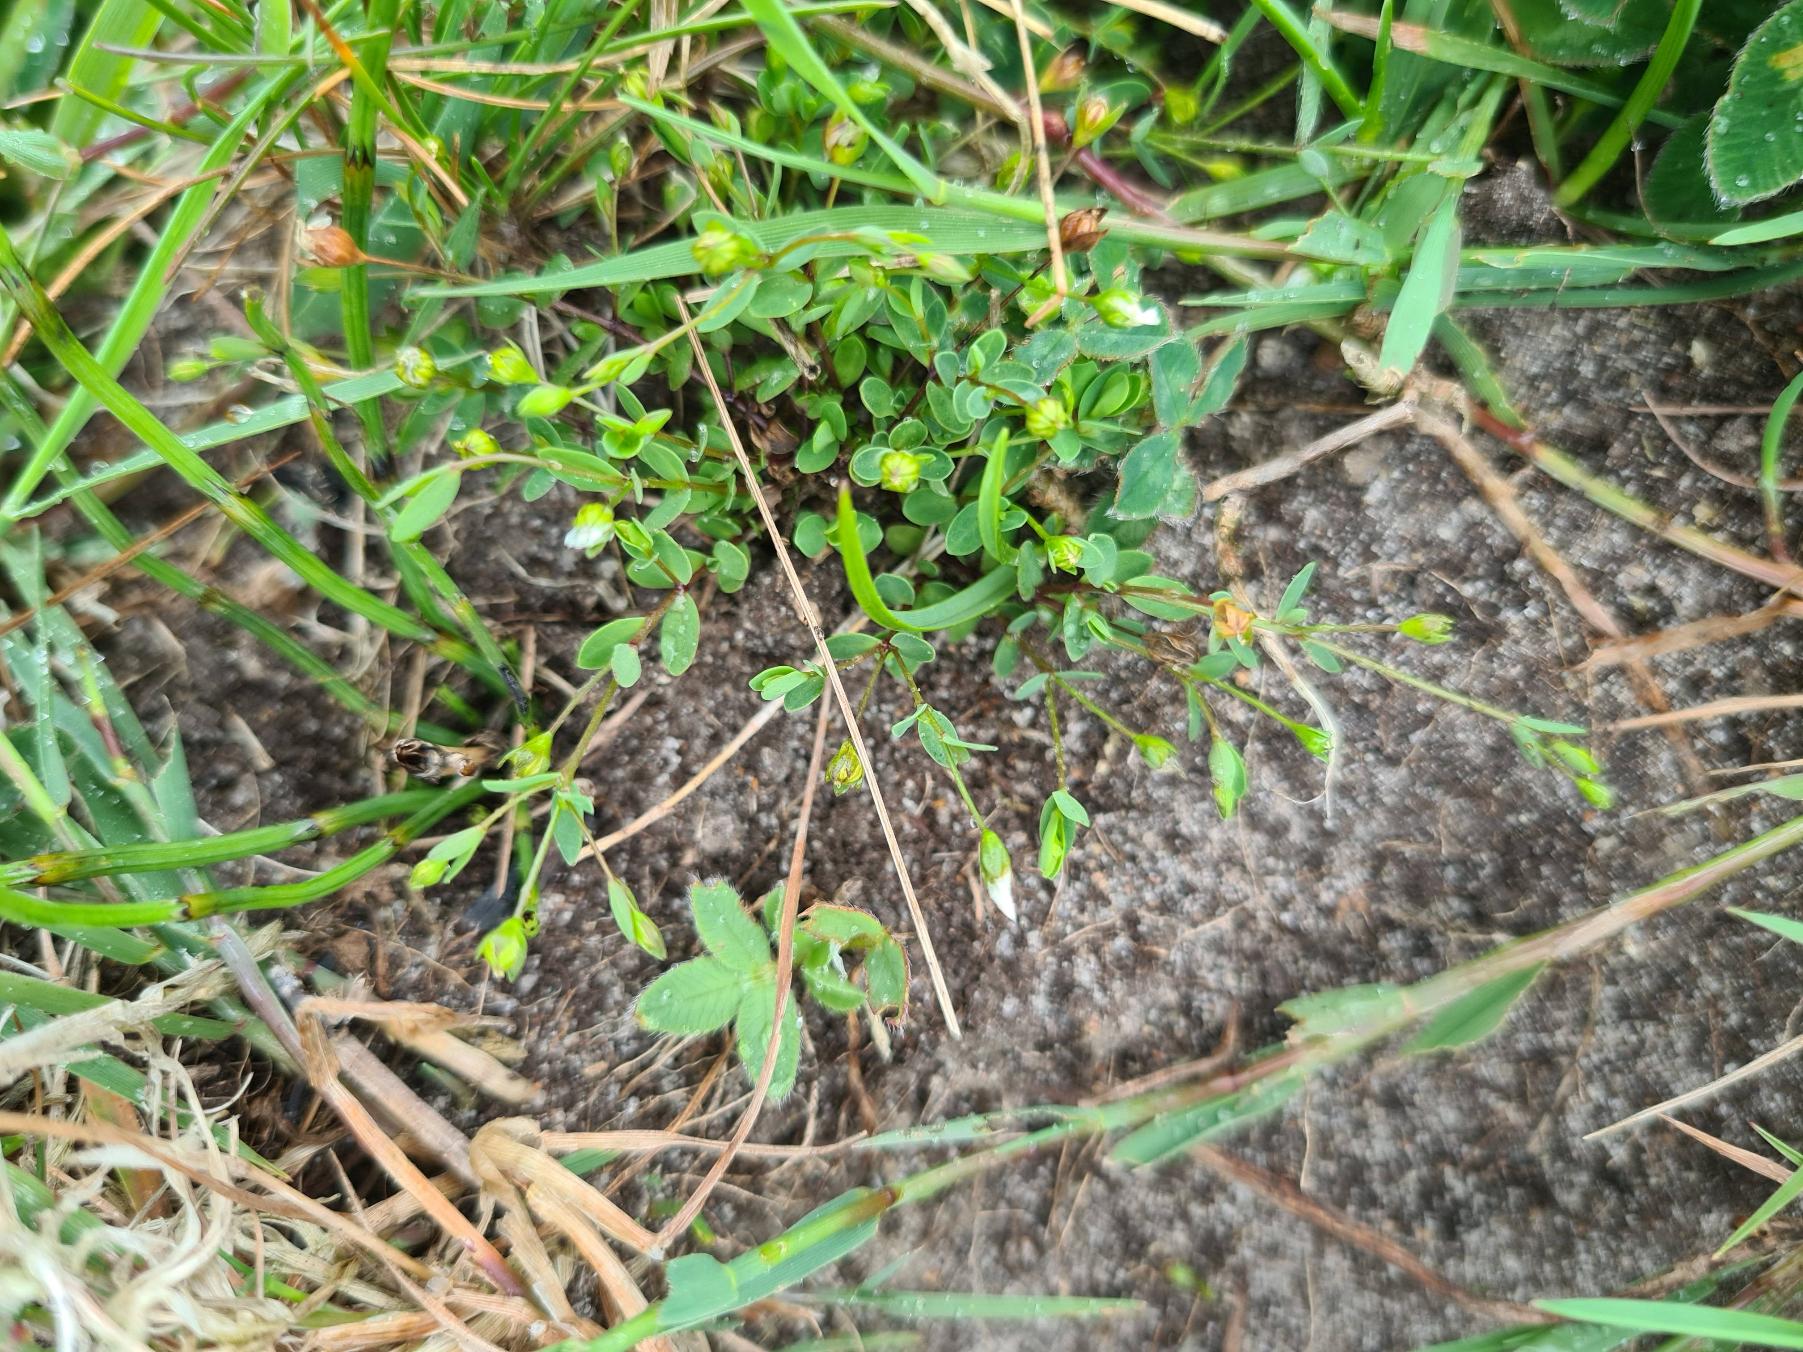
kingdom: Plantae
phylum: Tracheophyta
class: Magnoliopsida
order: Malpighiales
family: Linaceae
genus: Linum
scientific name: Linum catharticum
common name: Vild hør
